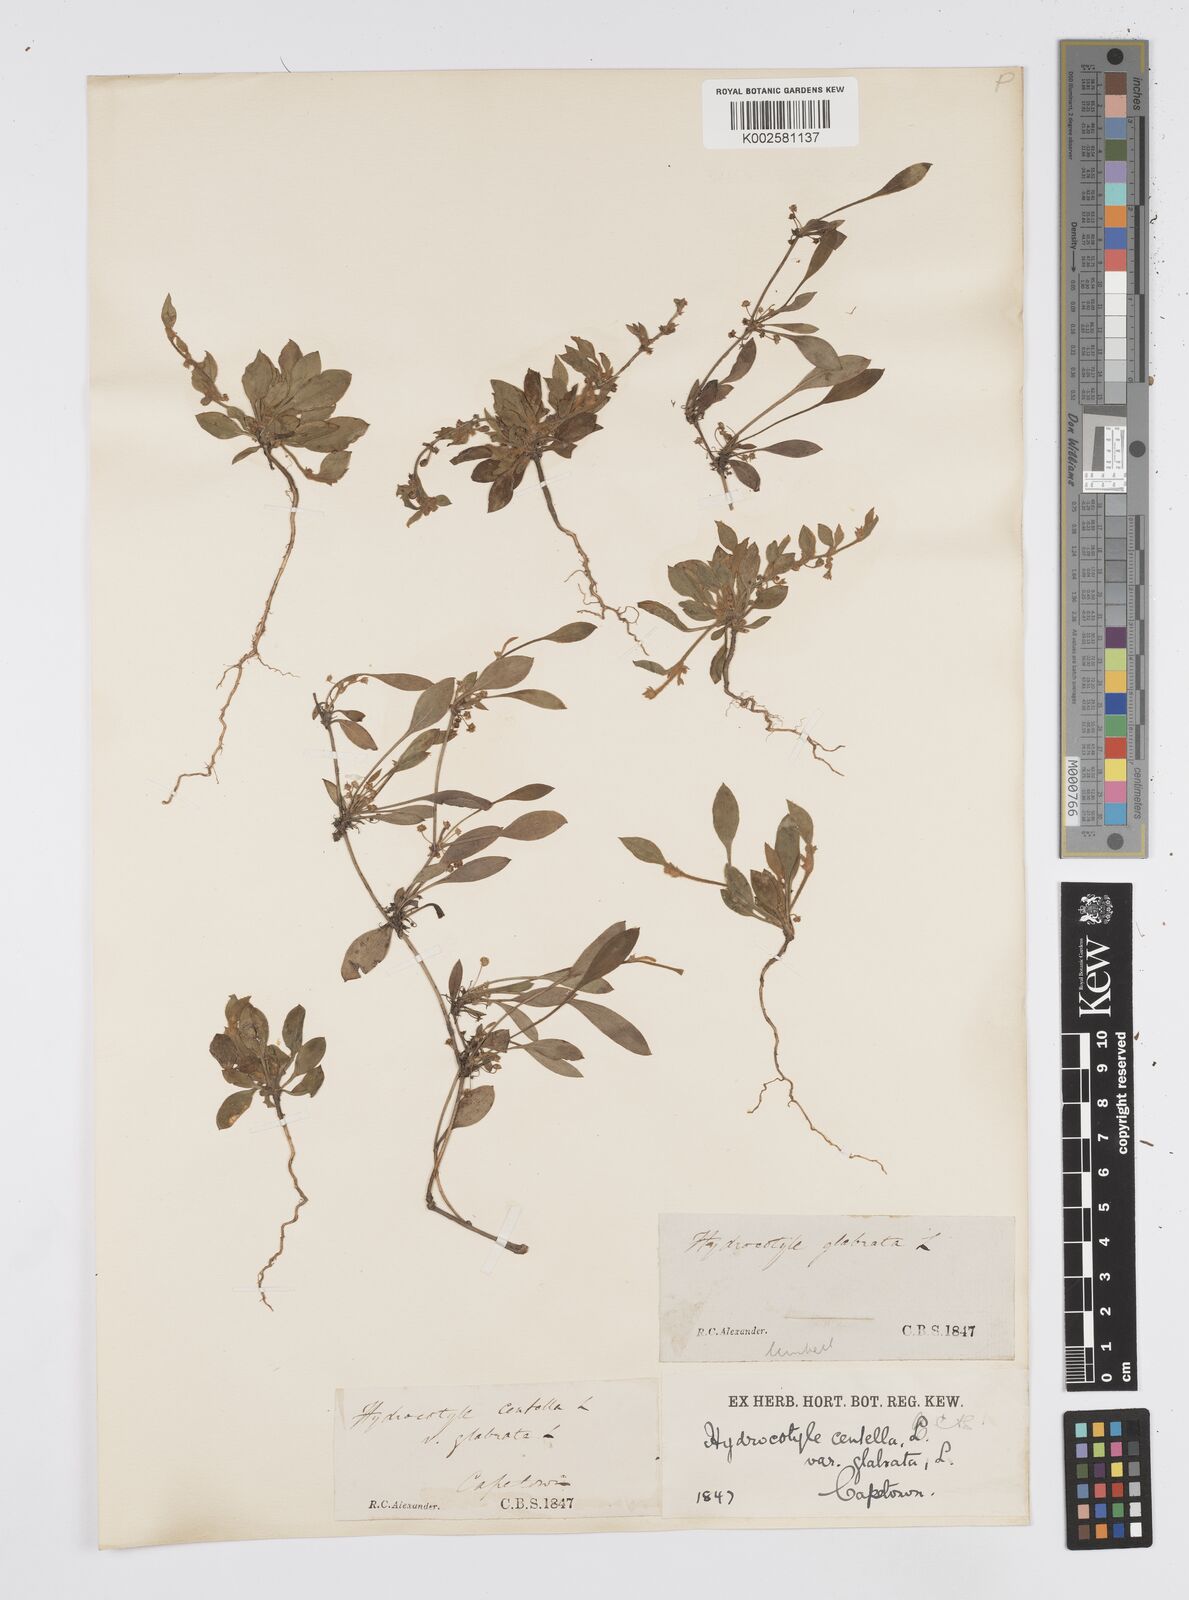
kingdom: Plantae
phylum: Tracheophyta
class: Magnoliopsida
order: Apiales
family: Apiaceae
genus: Centella
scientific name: Centella glabrata
